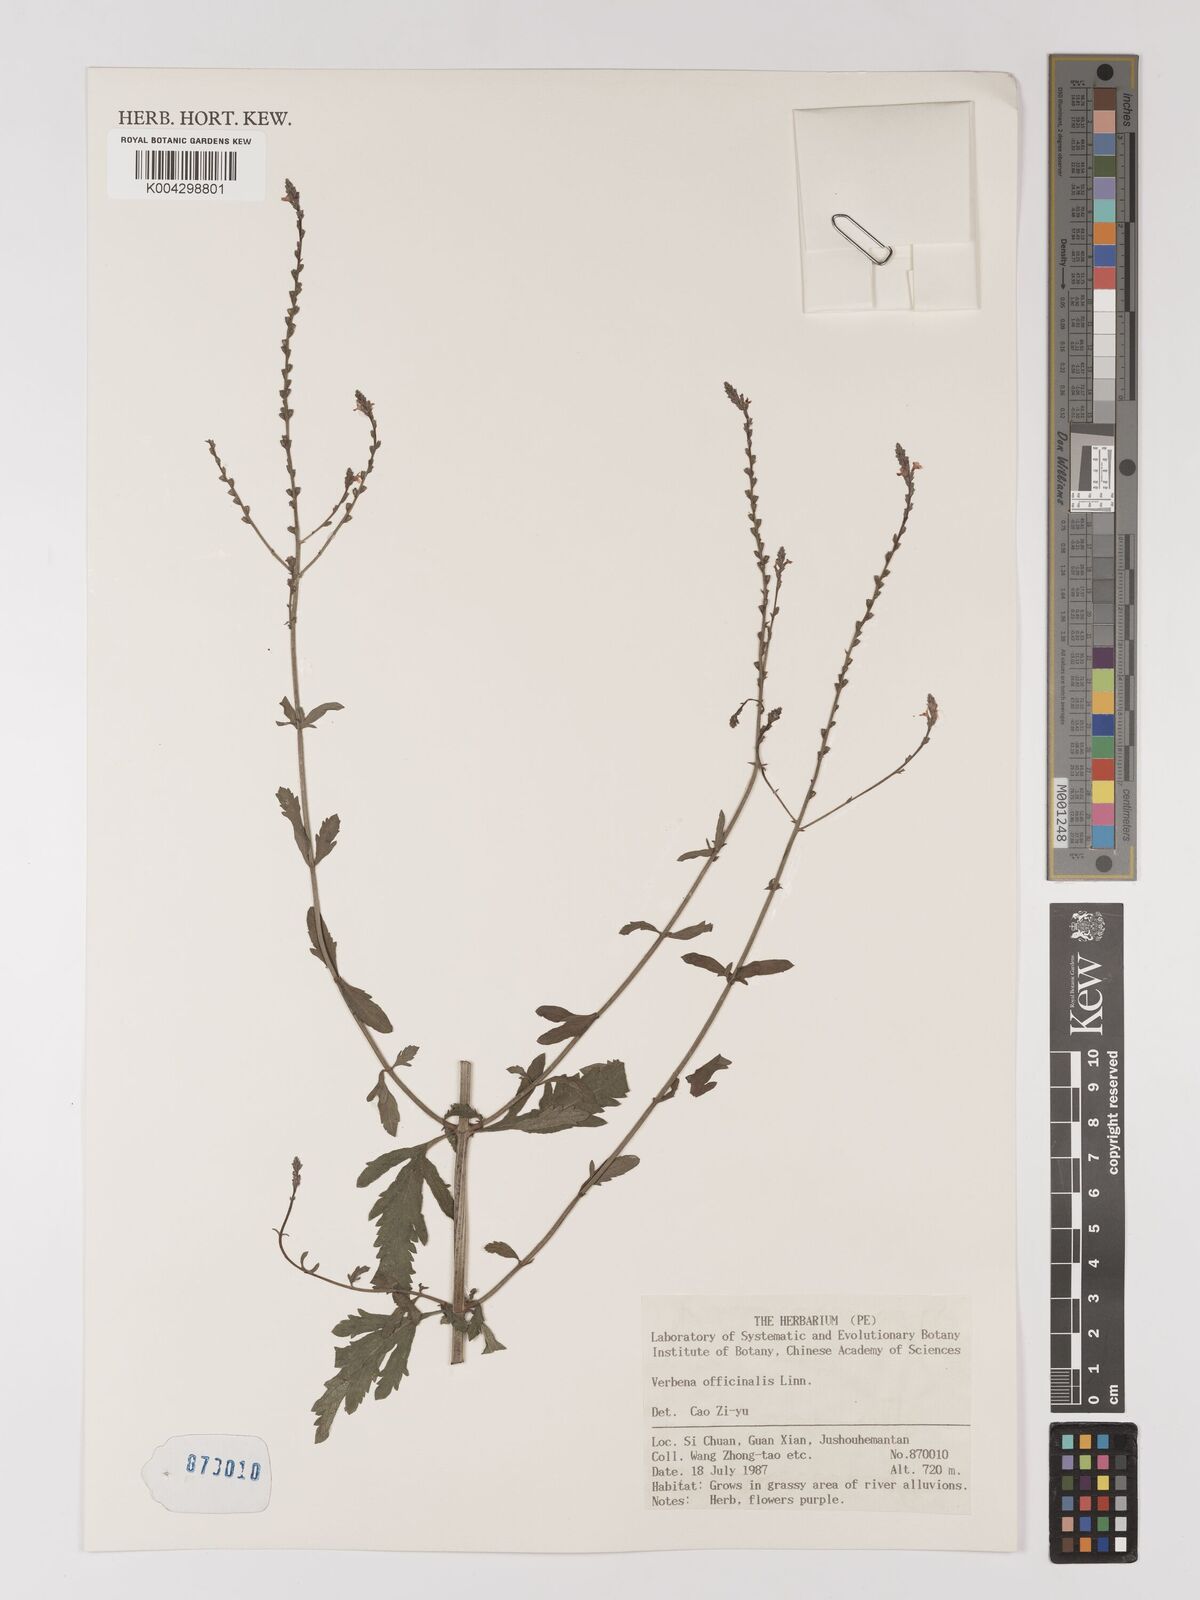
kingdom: Plantae
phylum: Tracheophyta
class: Magnoliopsida
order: Lamiales
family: Verbenaceae
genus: Verbena
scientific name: Verbena officinalis
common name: Vervain
